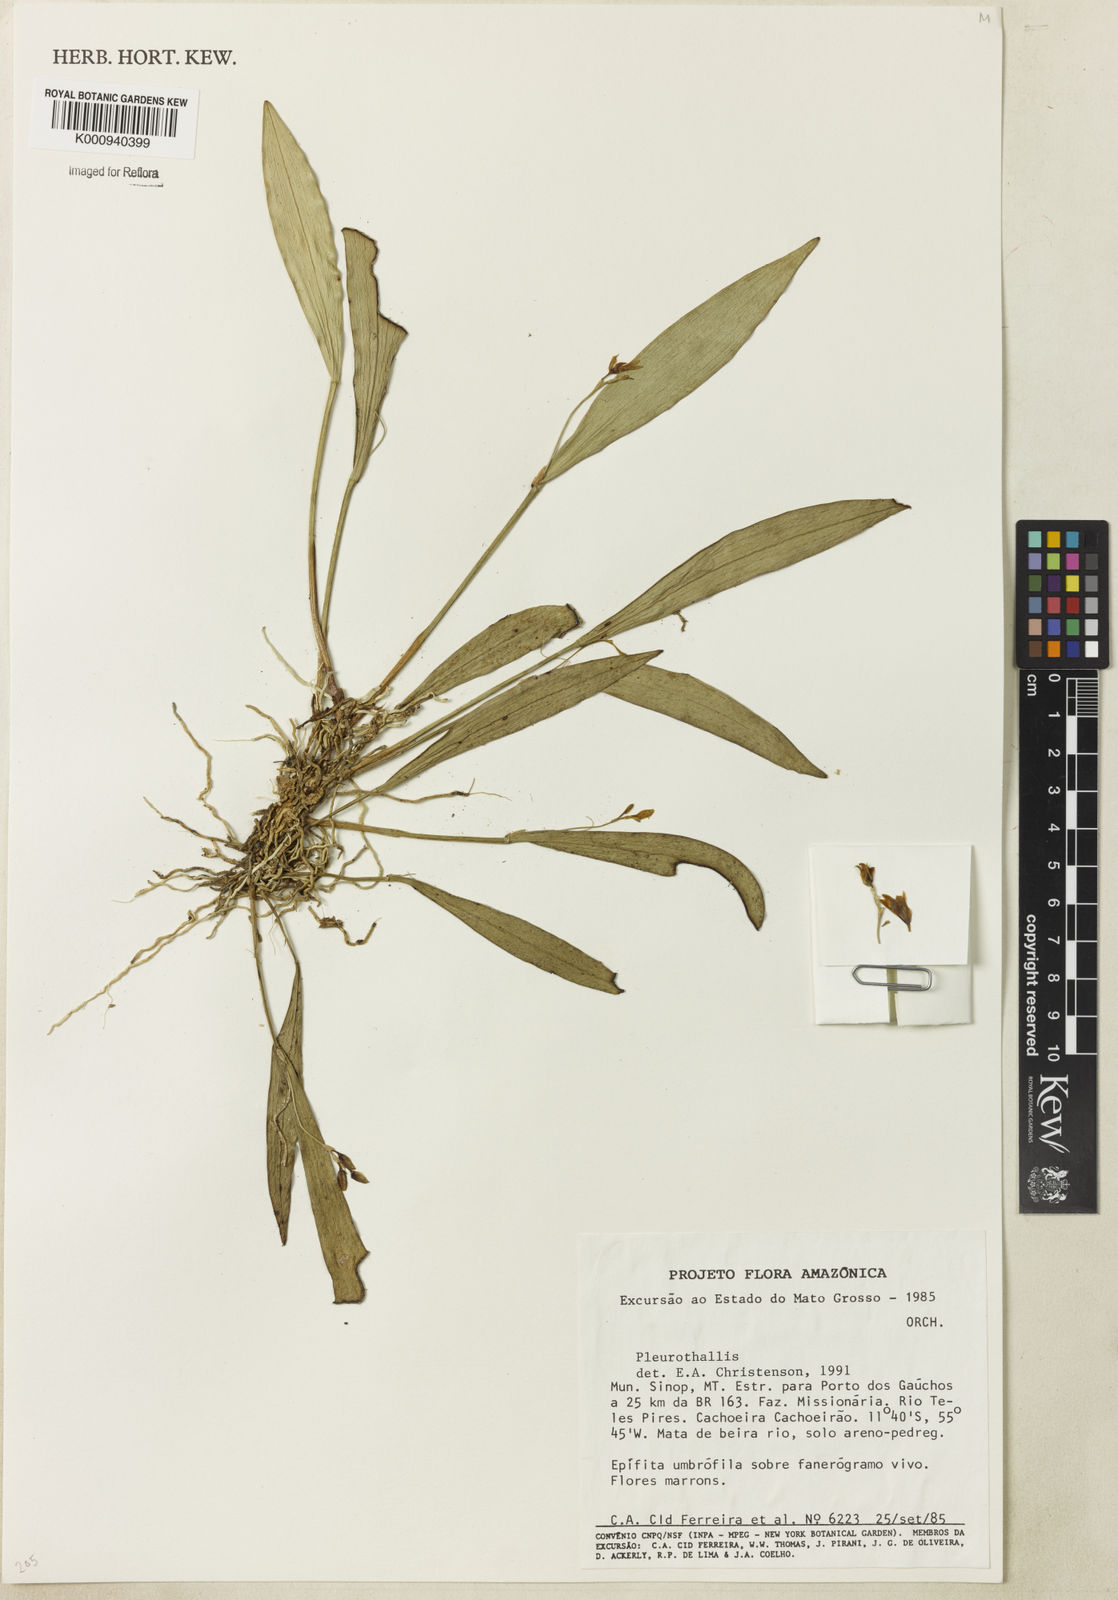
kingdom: Plantae
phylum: Tracheophyta
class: Liliopsida
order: Asparagales
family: Orchidaceae
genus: Pleurothallis
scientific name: Pleurothallis
